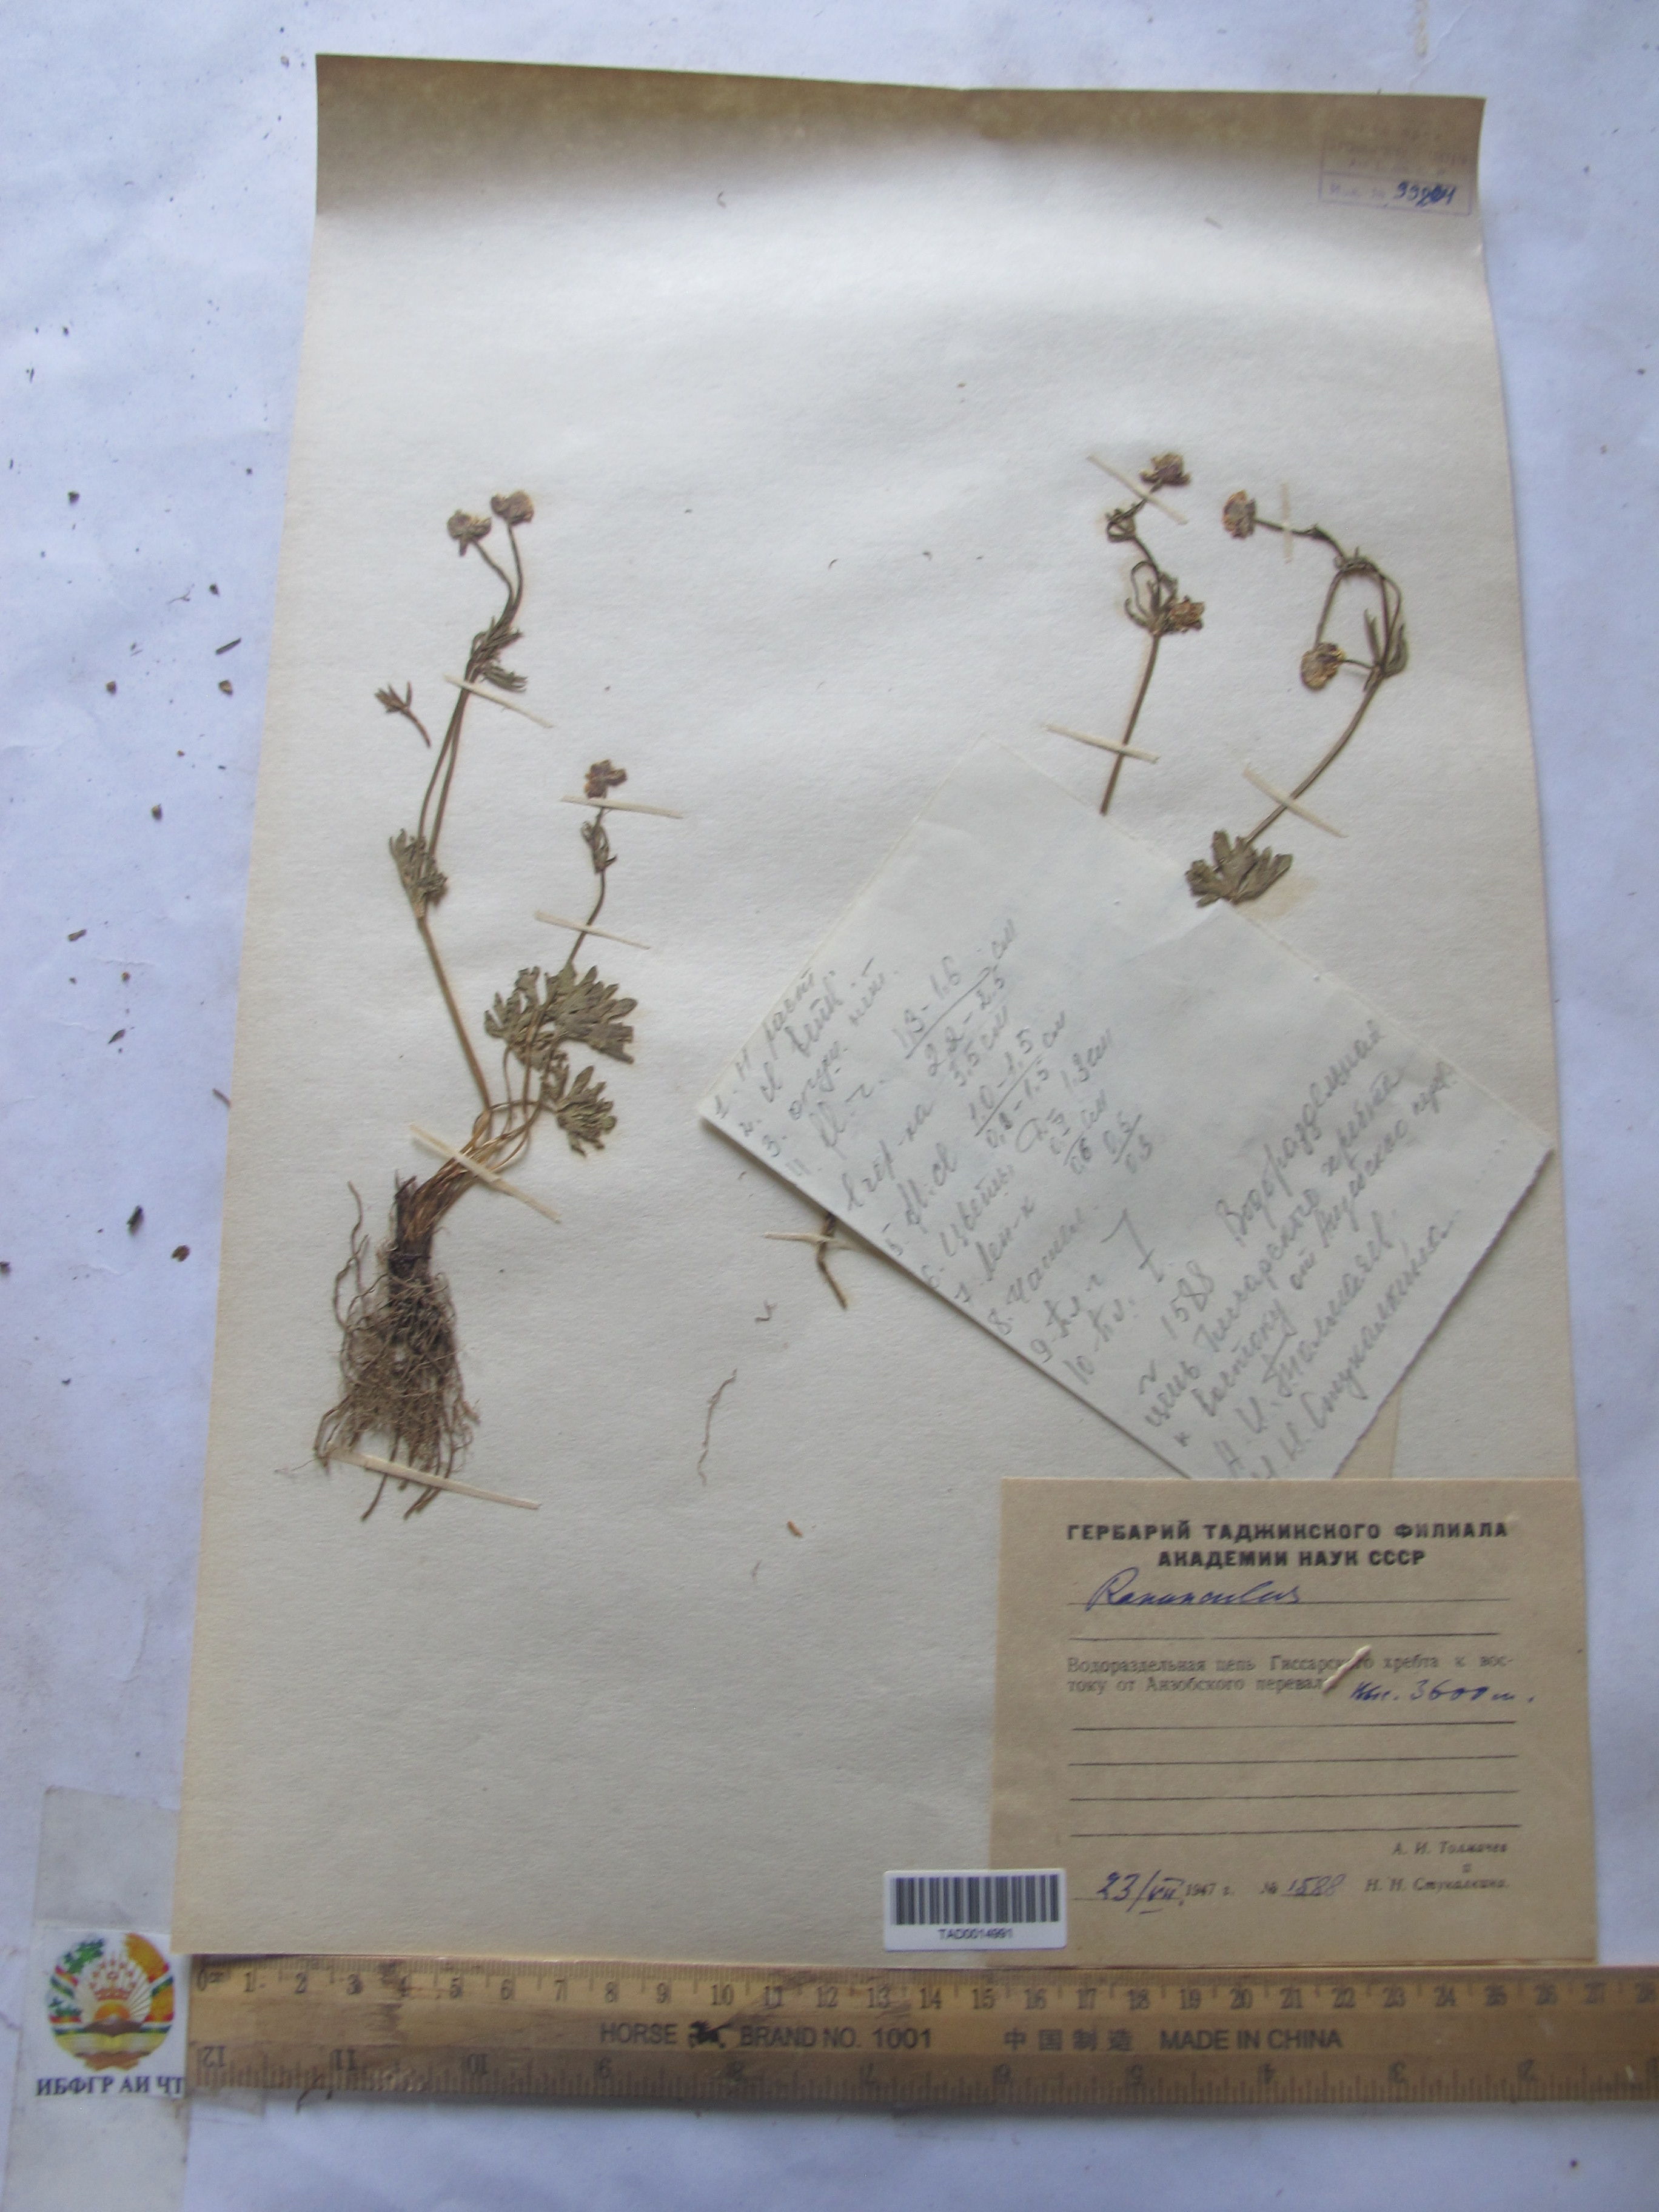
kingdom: Plantae
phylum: Tracheophyta
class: Magnoliopsida
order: Ranunculales
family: Ranunculaceae
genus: Ranunculus
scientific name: Ranunculus rubrocalyx
